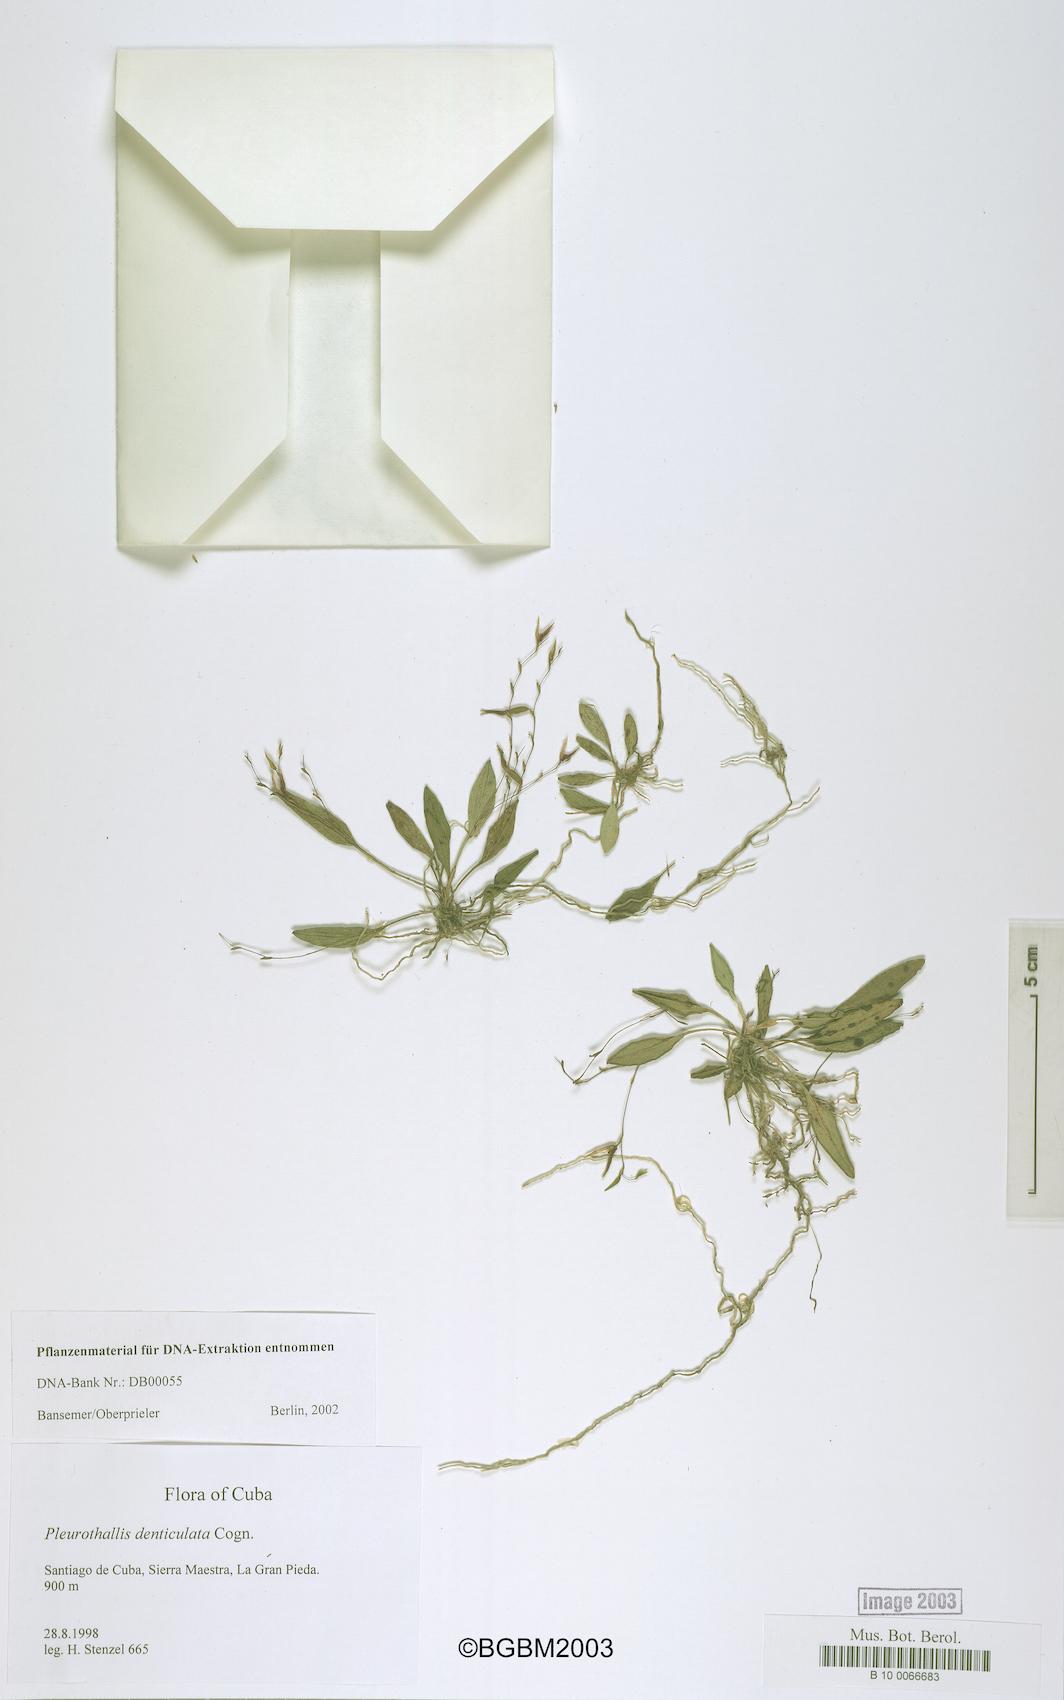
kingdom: Plantae
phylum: Tracheophyta
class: Liliopsida
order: Asparagales
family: Orchidaceae
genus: Acianthera
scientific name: Acianthera denticulata
